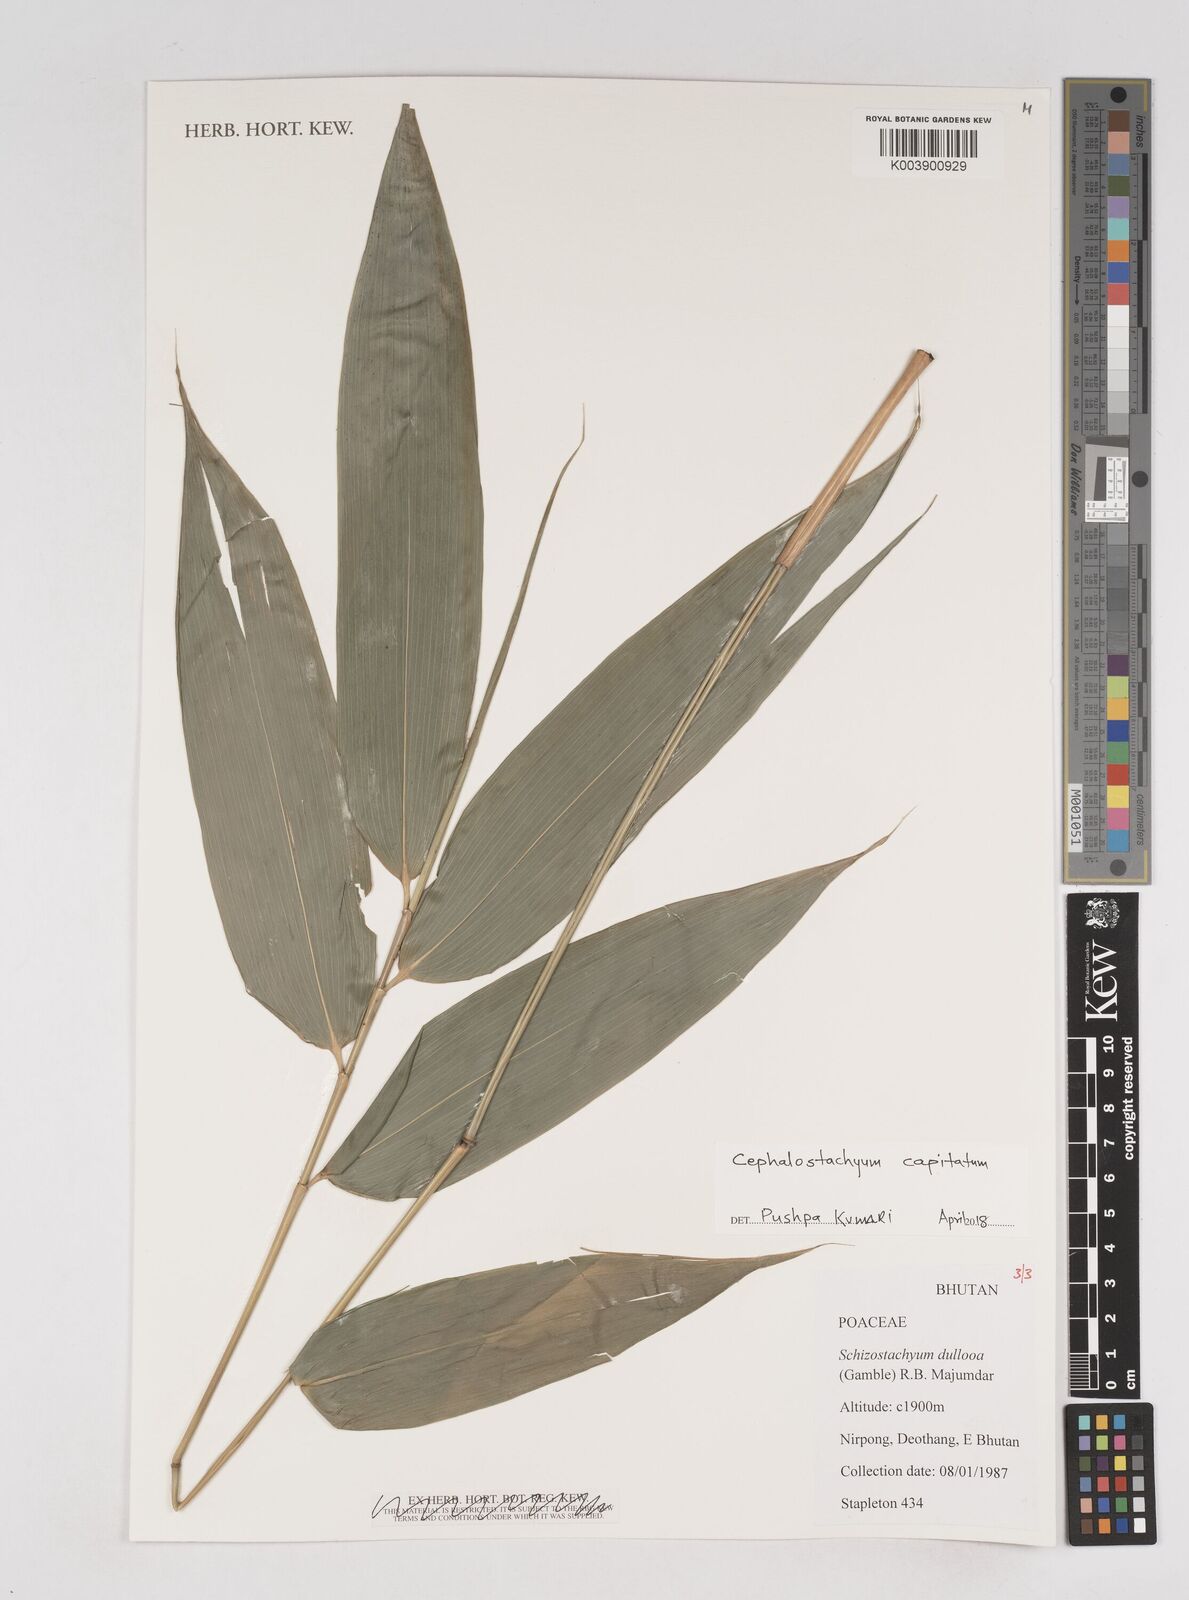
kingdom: Plantae
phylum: Tracheophyta
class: Liliopsida
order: Poales
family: Poaceae
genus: Cephalostachyum
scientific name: Cephalostachyum capitatum
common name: Hollow bamboo
